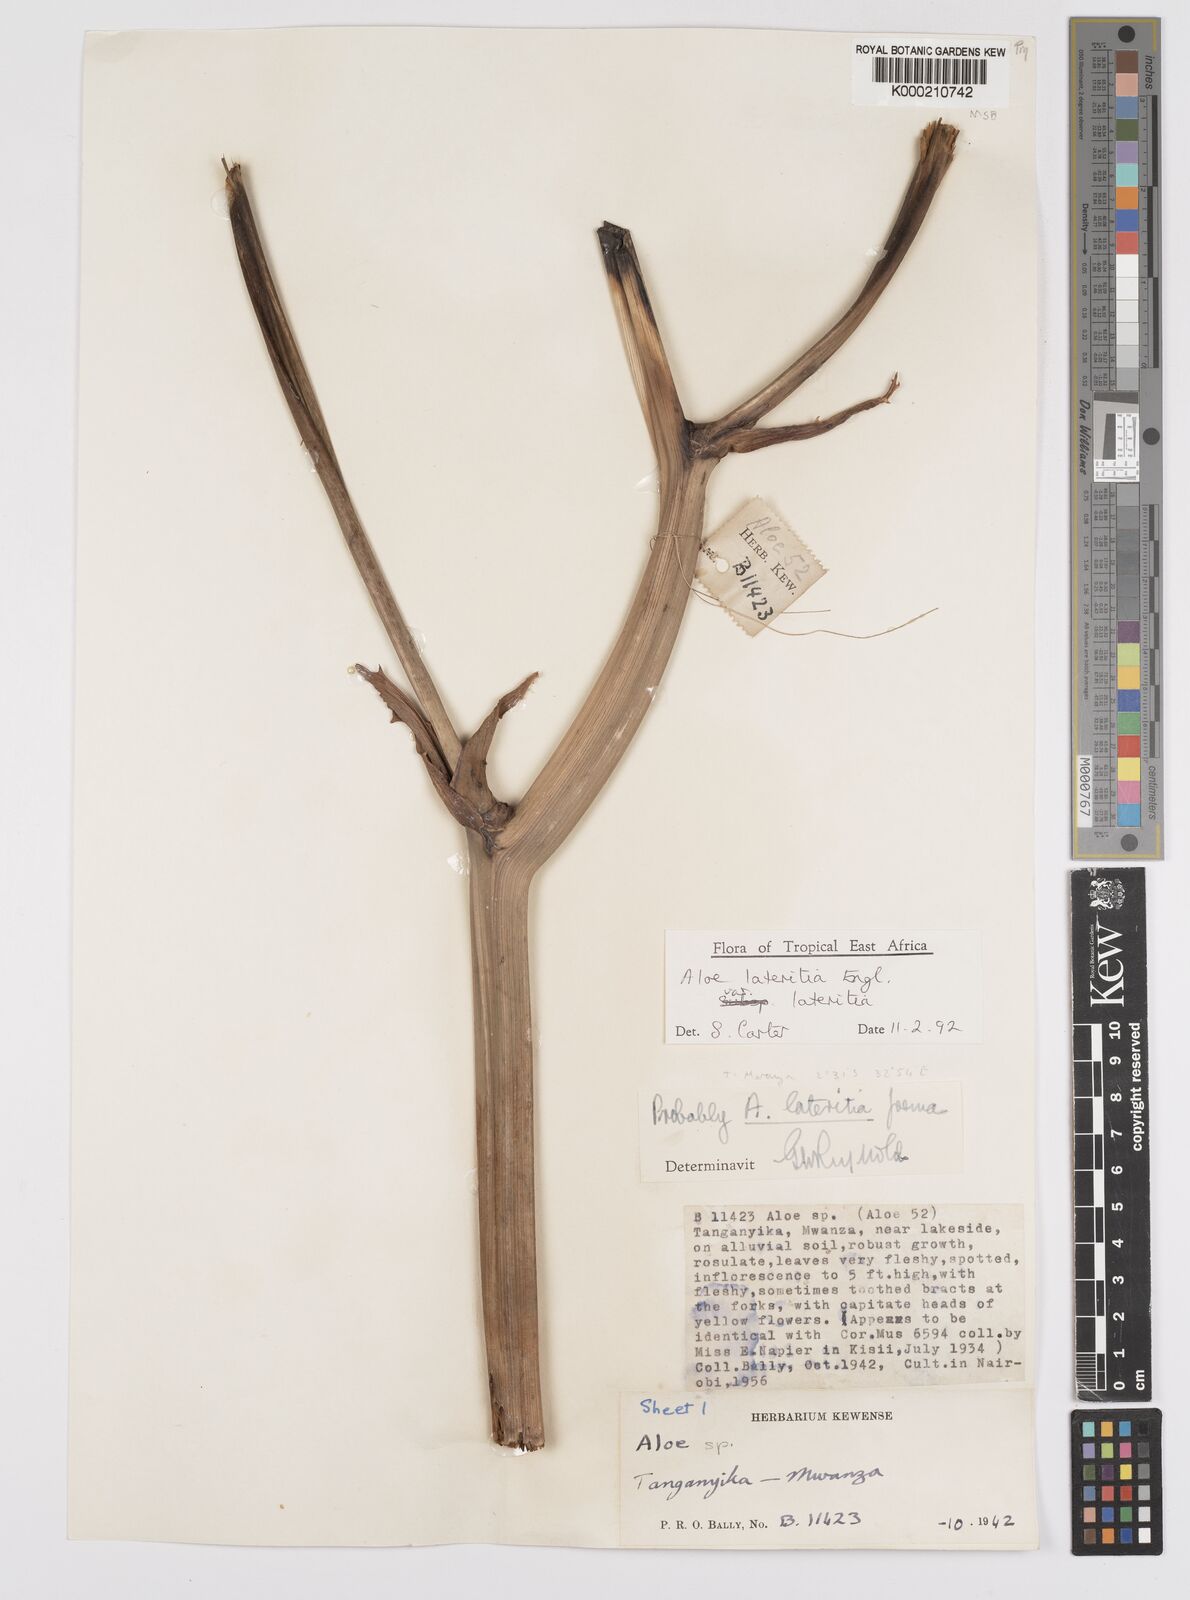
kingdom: Plantae
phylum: Tracheophyta
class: Liliopsida
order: Asparagales
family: Asphodelaceae
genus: Aloe
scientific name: Aloe lateritia
